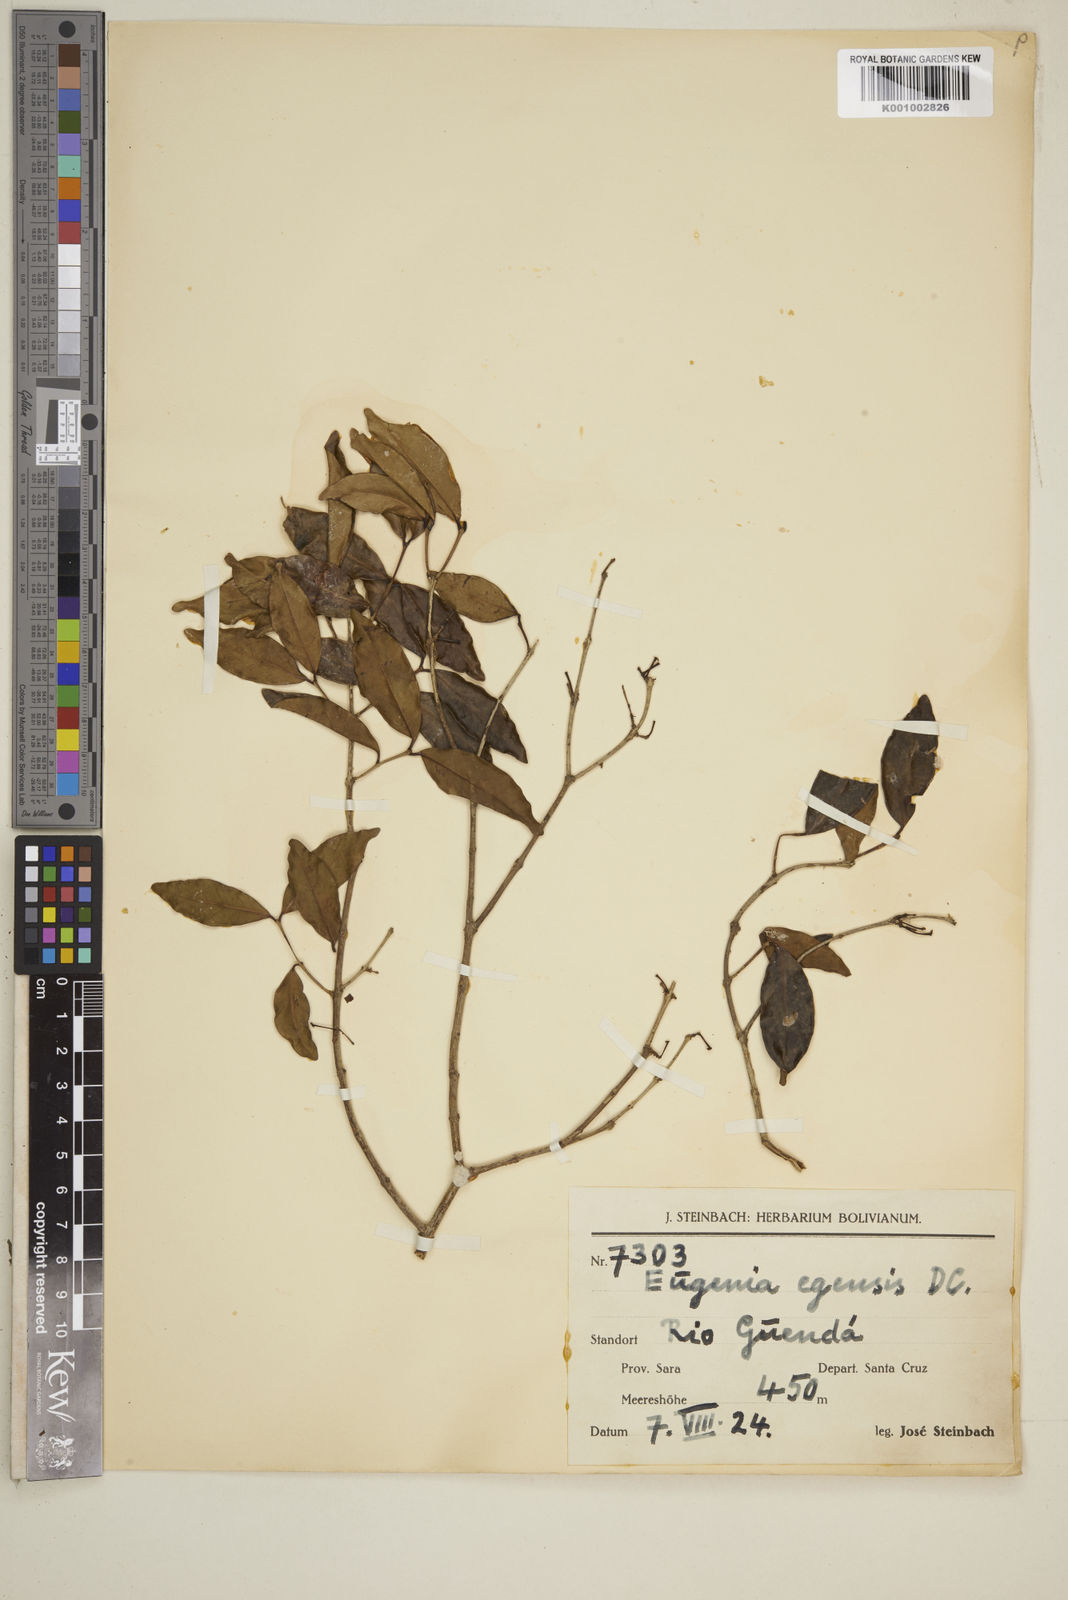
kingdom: Plantae
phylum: Tracheophyta
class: Magnoliopsida
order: Myrtales
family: Myrtaceae
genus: Eugenia
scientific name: Eugenia egensis
